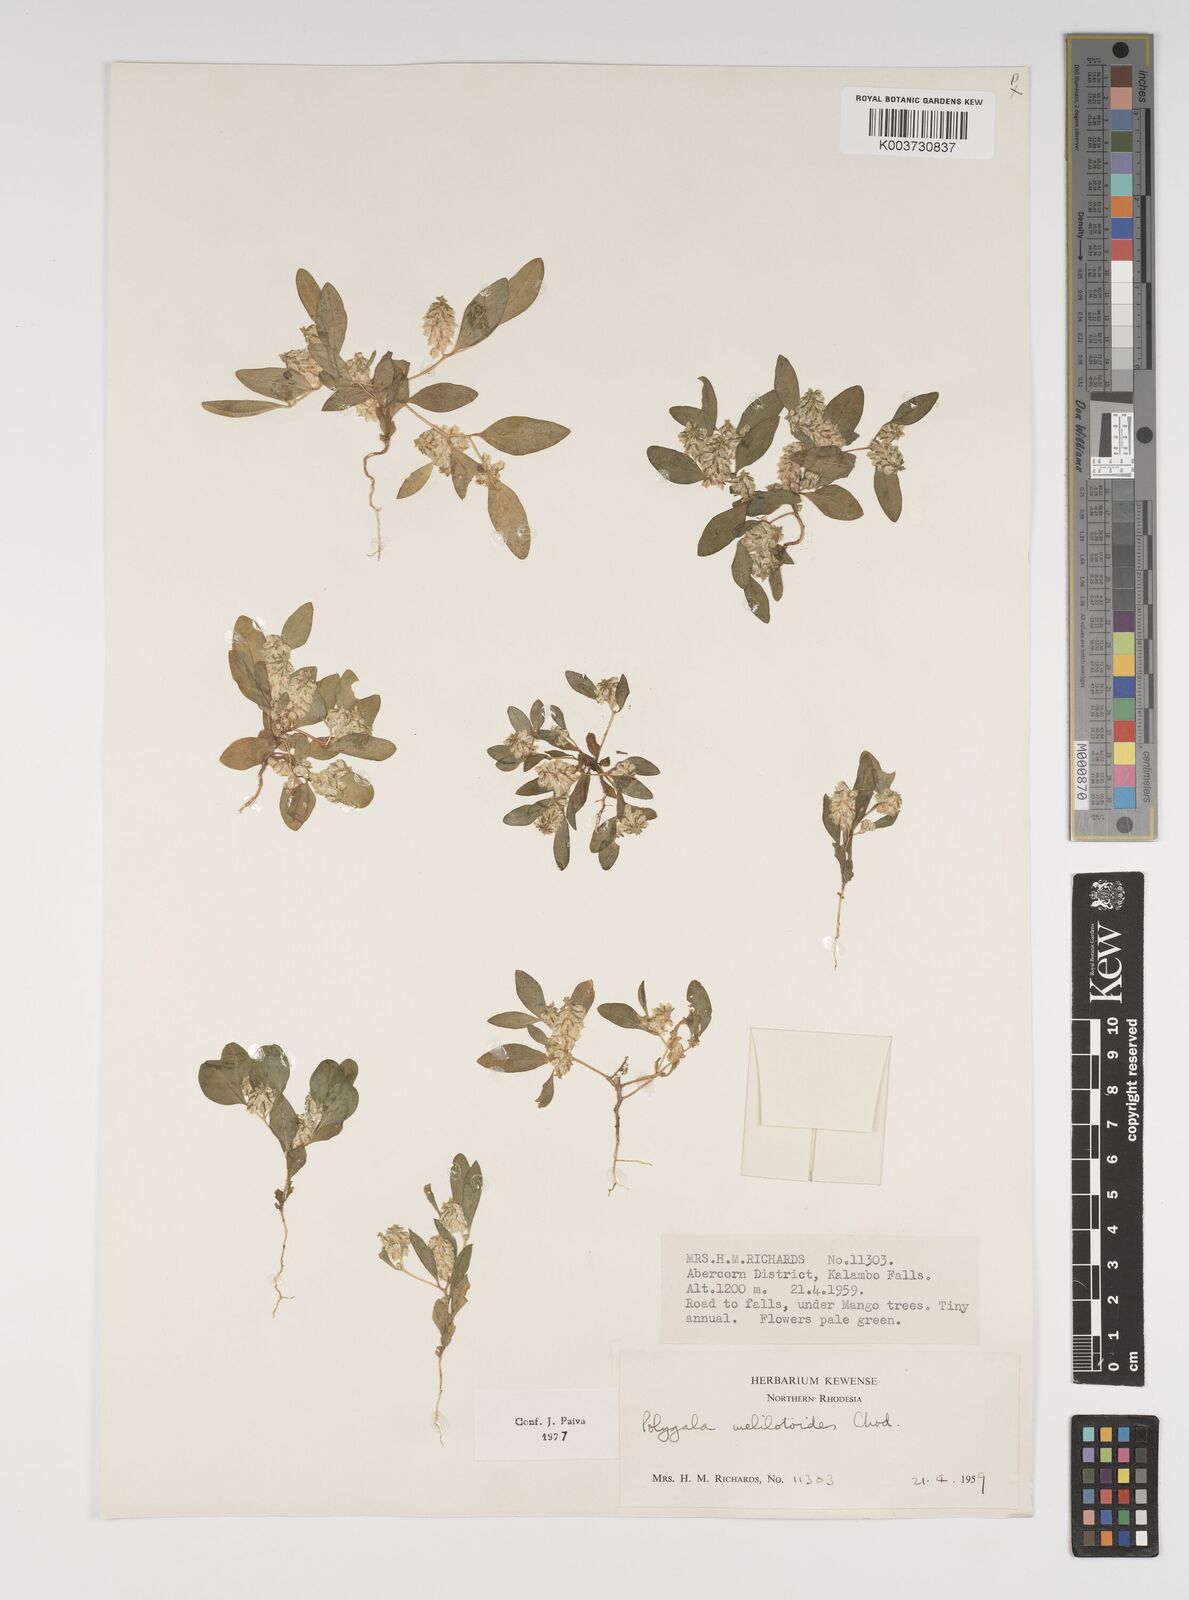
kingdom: Plantae
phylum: Tracheophyta
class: Magnoliopsida
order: Fabales
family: Polygalaceae
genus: Polygala
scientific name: Polygala melilotoides
